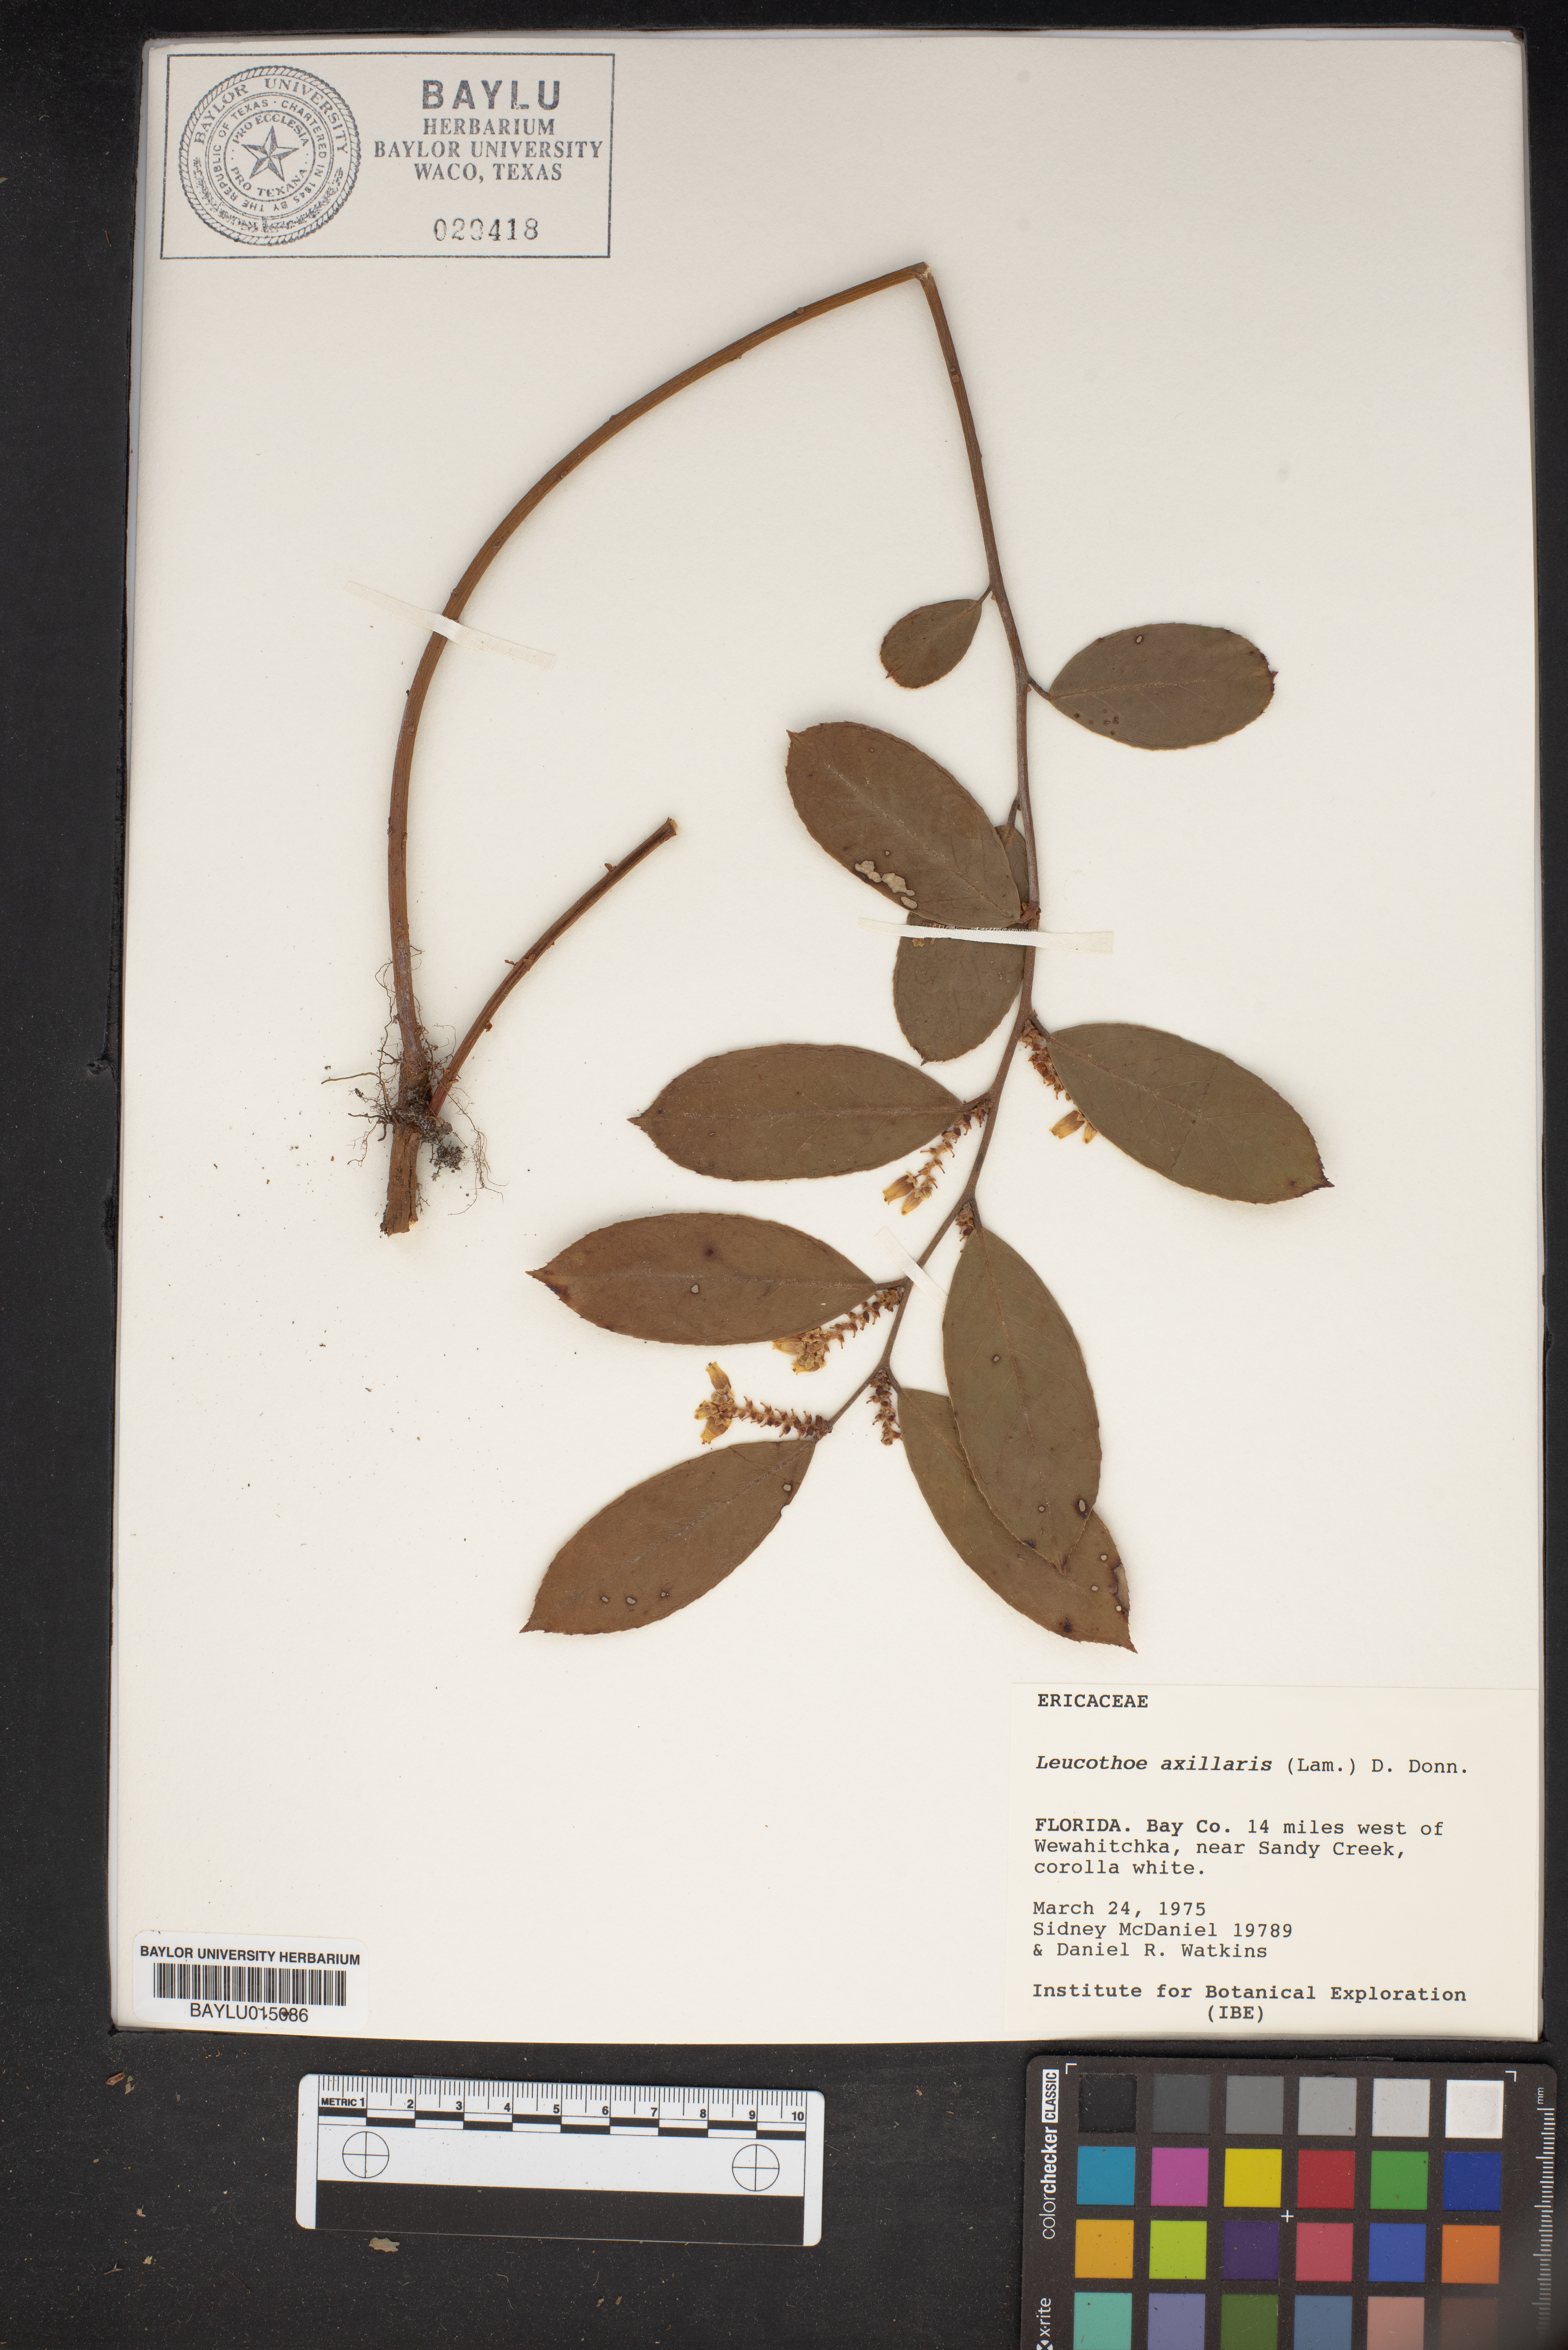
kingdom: Plantae
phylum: Tracheophyta
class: Magnoliopsida
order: Ericales
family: Ericaceae
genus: Leucothoe
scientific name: Leucothoe axillaris
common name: Leucothoe
